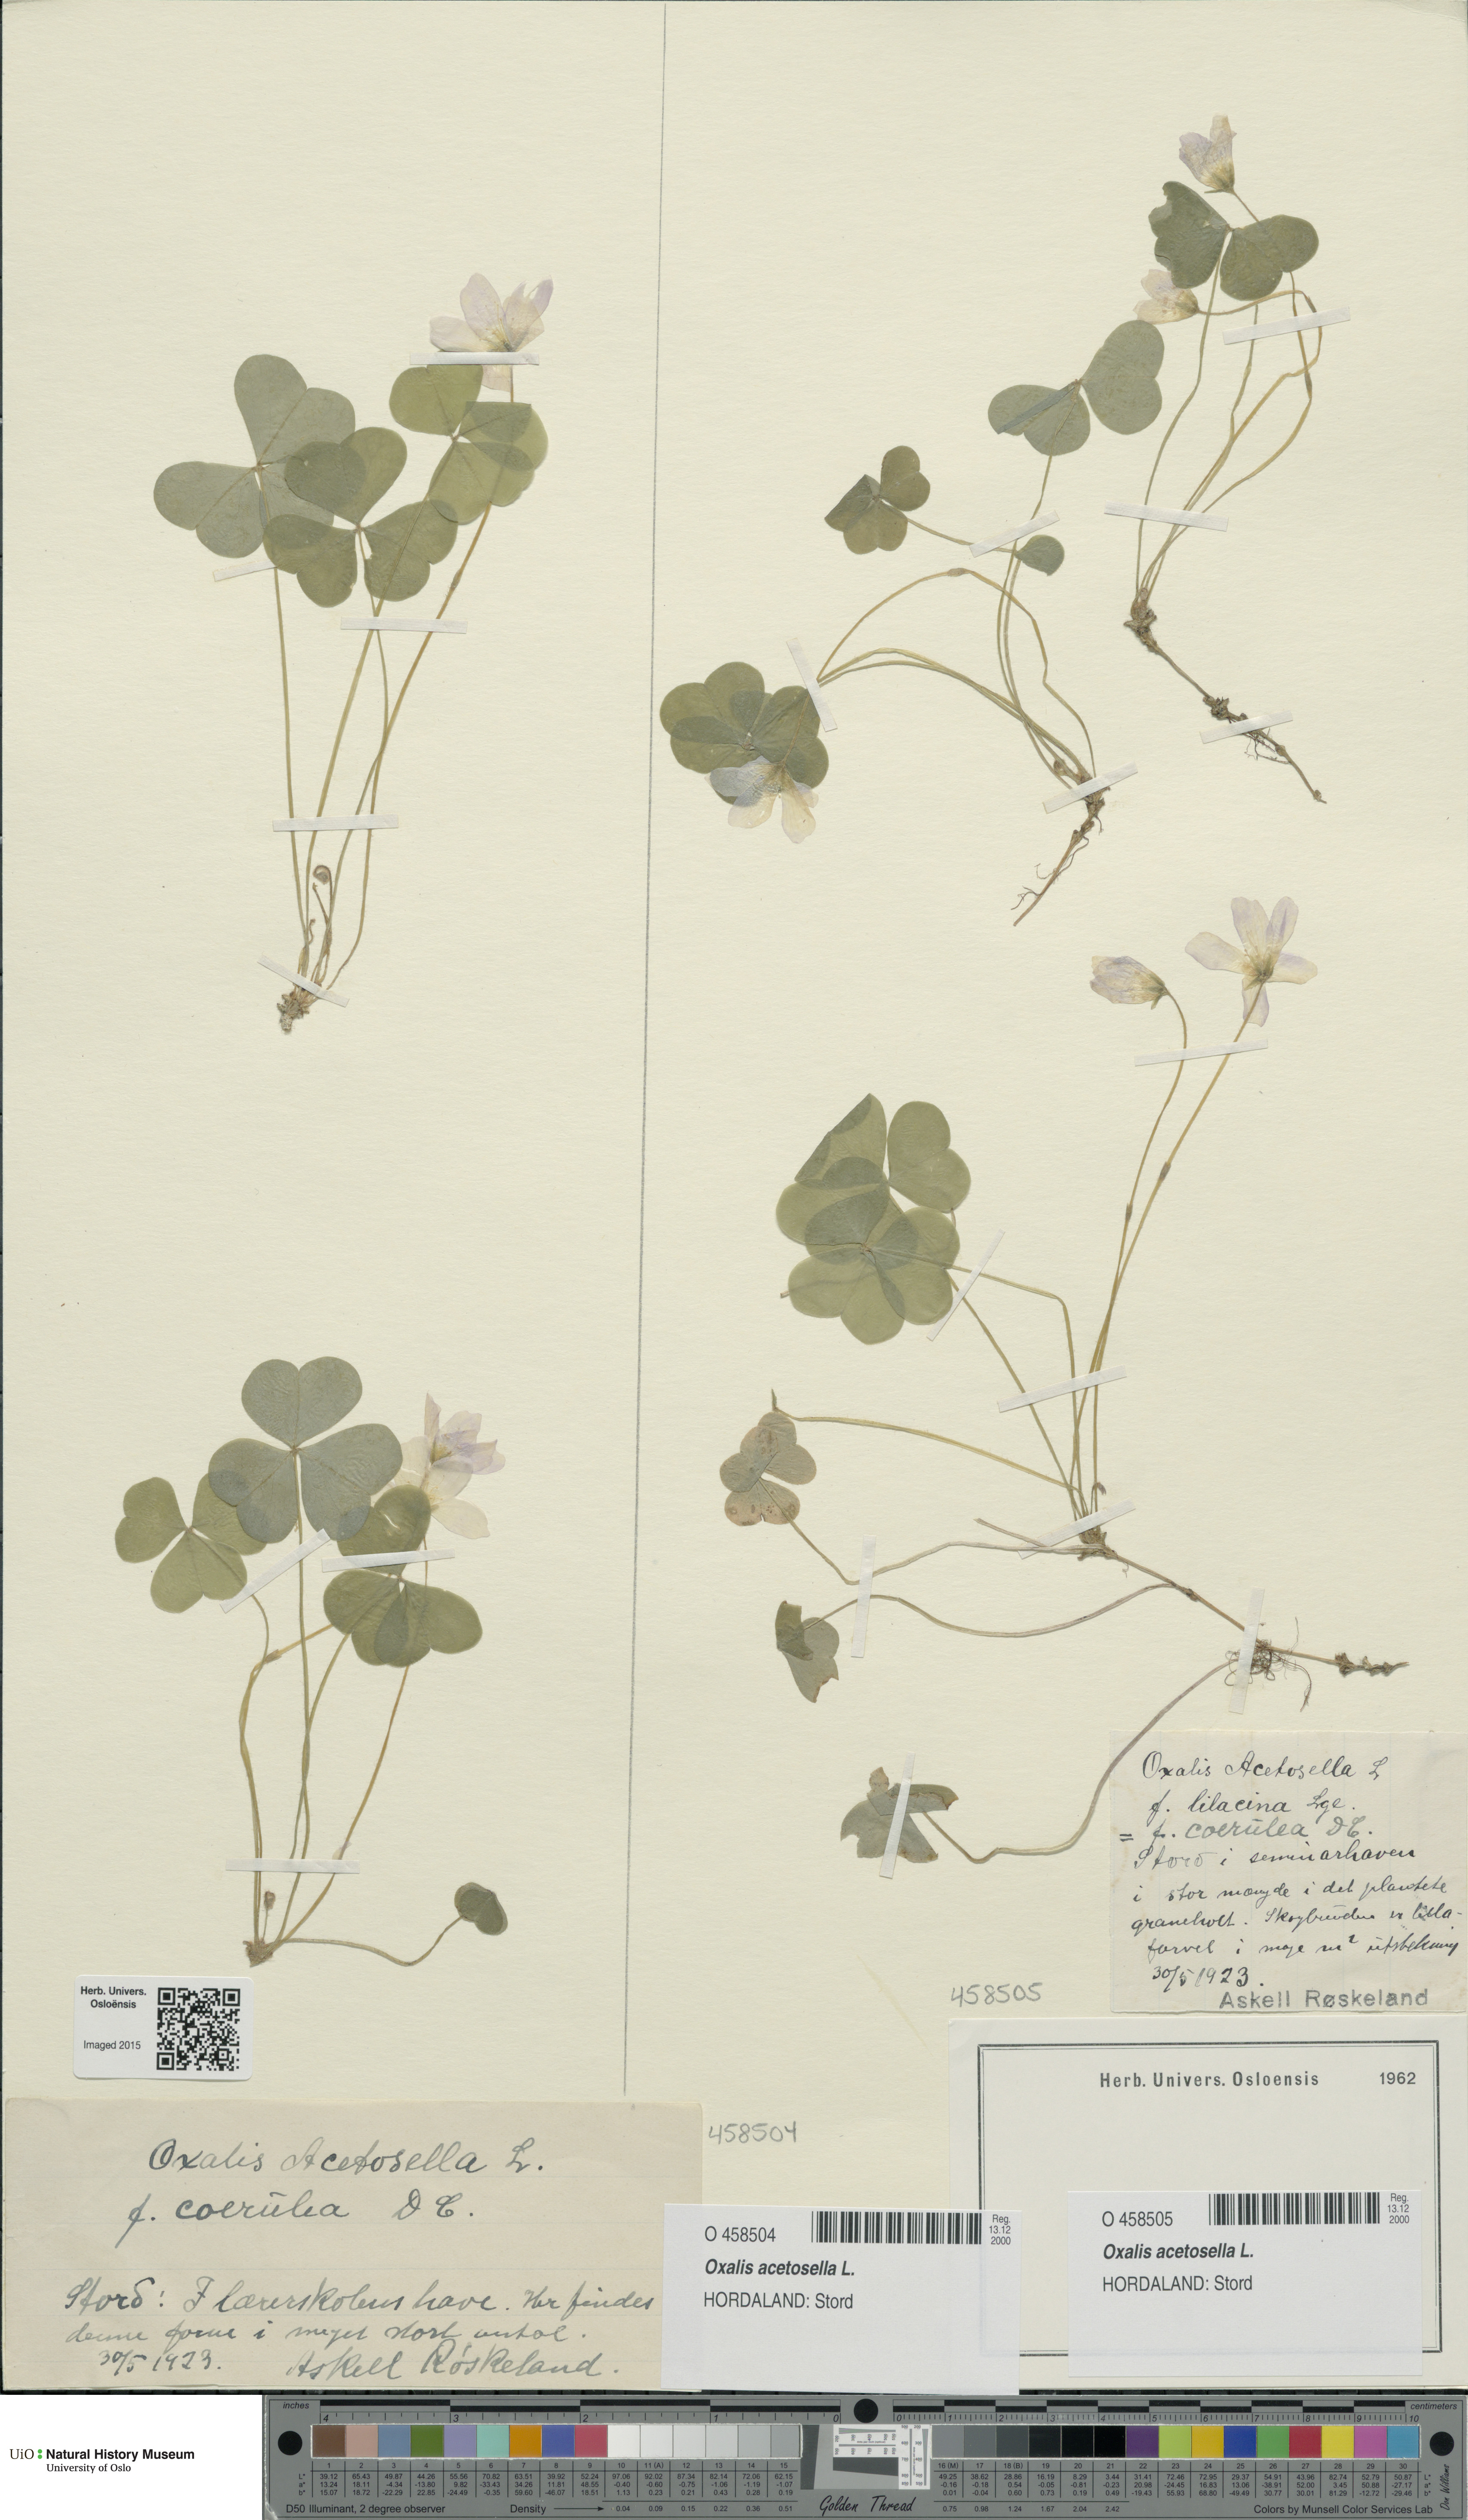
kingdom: Plantae
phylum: Tracheophyta
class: Magnoliopsida
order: Oxalidales
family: Oxalidaceae
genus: Oxalis
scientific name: Oxalis acetosella
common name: Wood-sorrel
